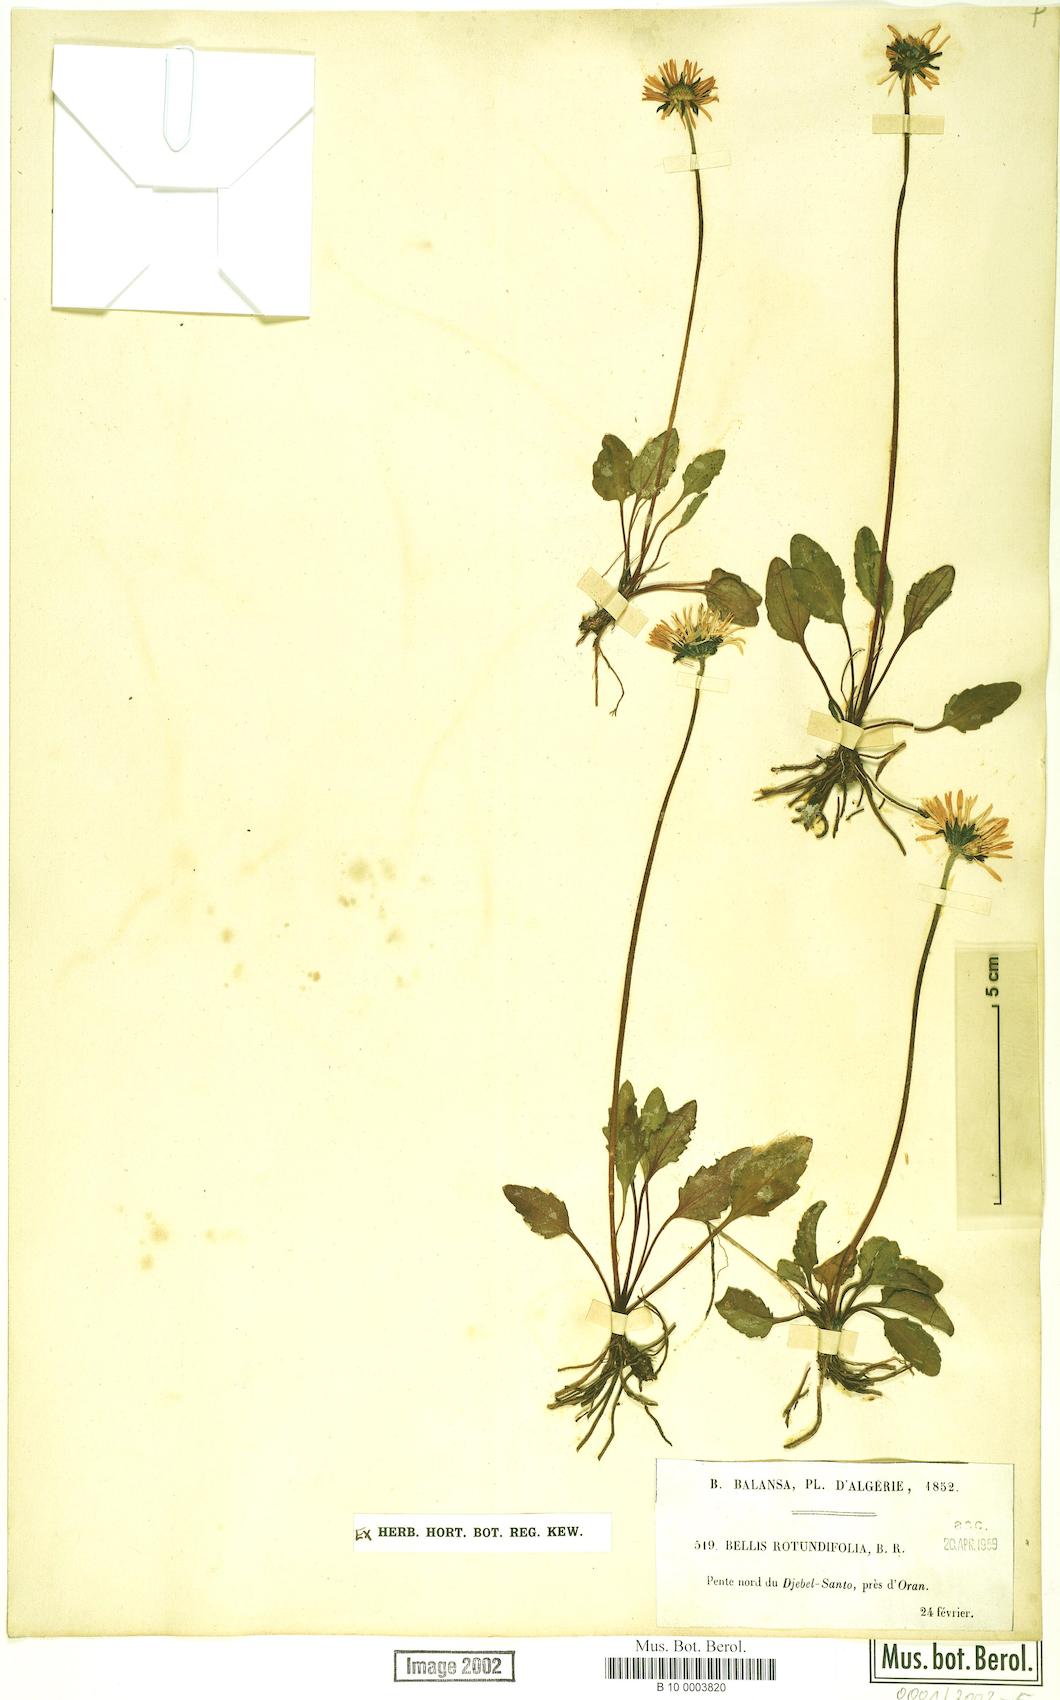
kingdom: Plantae
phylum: Tracheophyta
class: Magnoliopsida
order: Asterales
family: Asteraceae
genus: Bellis
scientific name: Bellis rotundifolia
